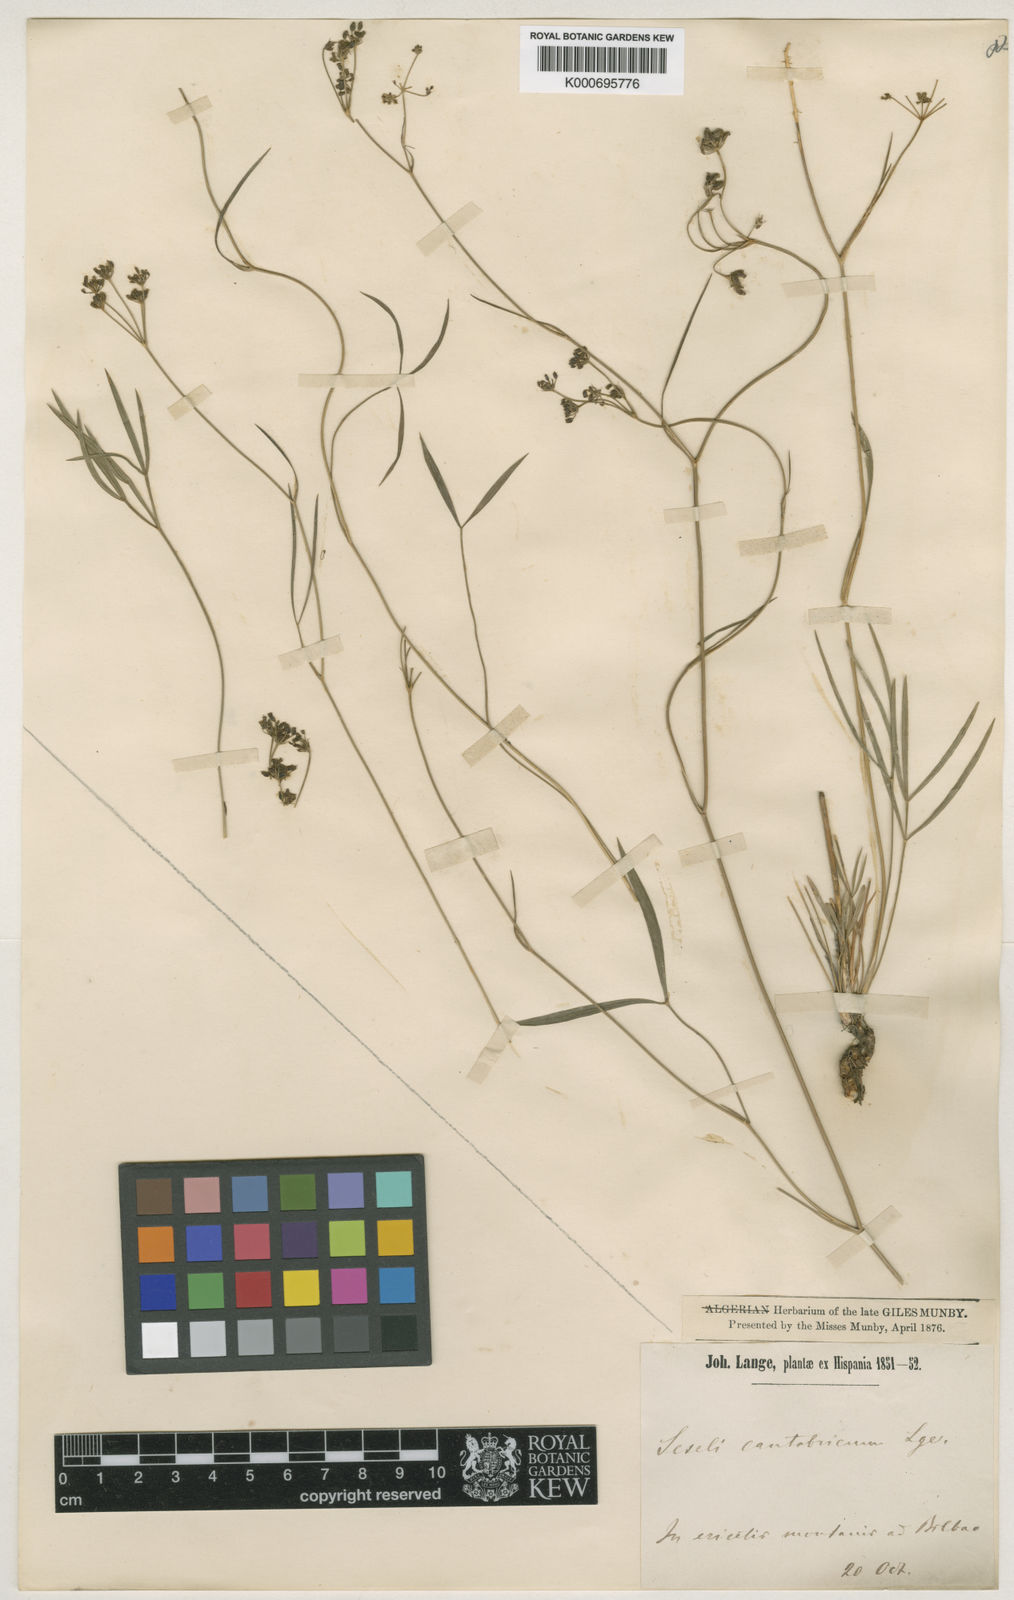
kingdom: Plantae
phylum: Tracheophyta
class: Magnoliopsida
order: Apiales
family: Apiaceae
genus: Seseli
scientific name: Seseli cantabricum
